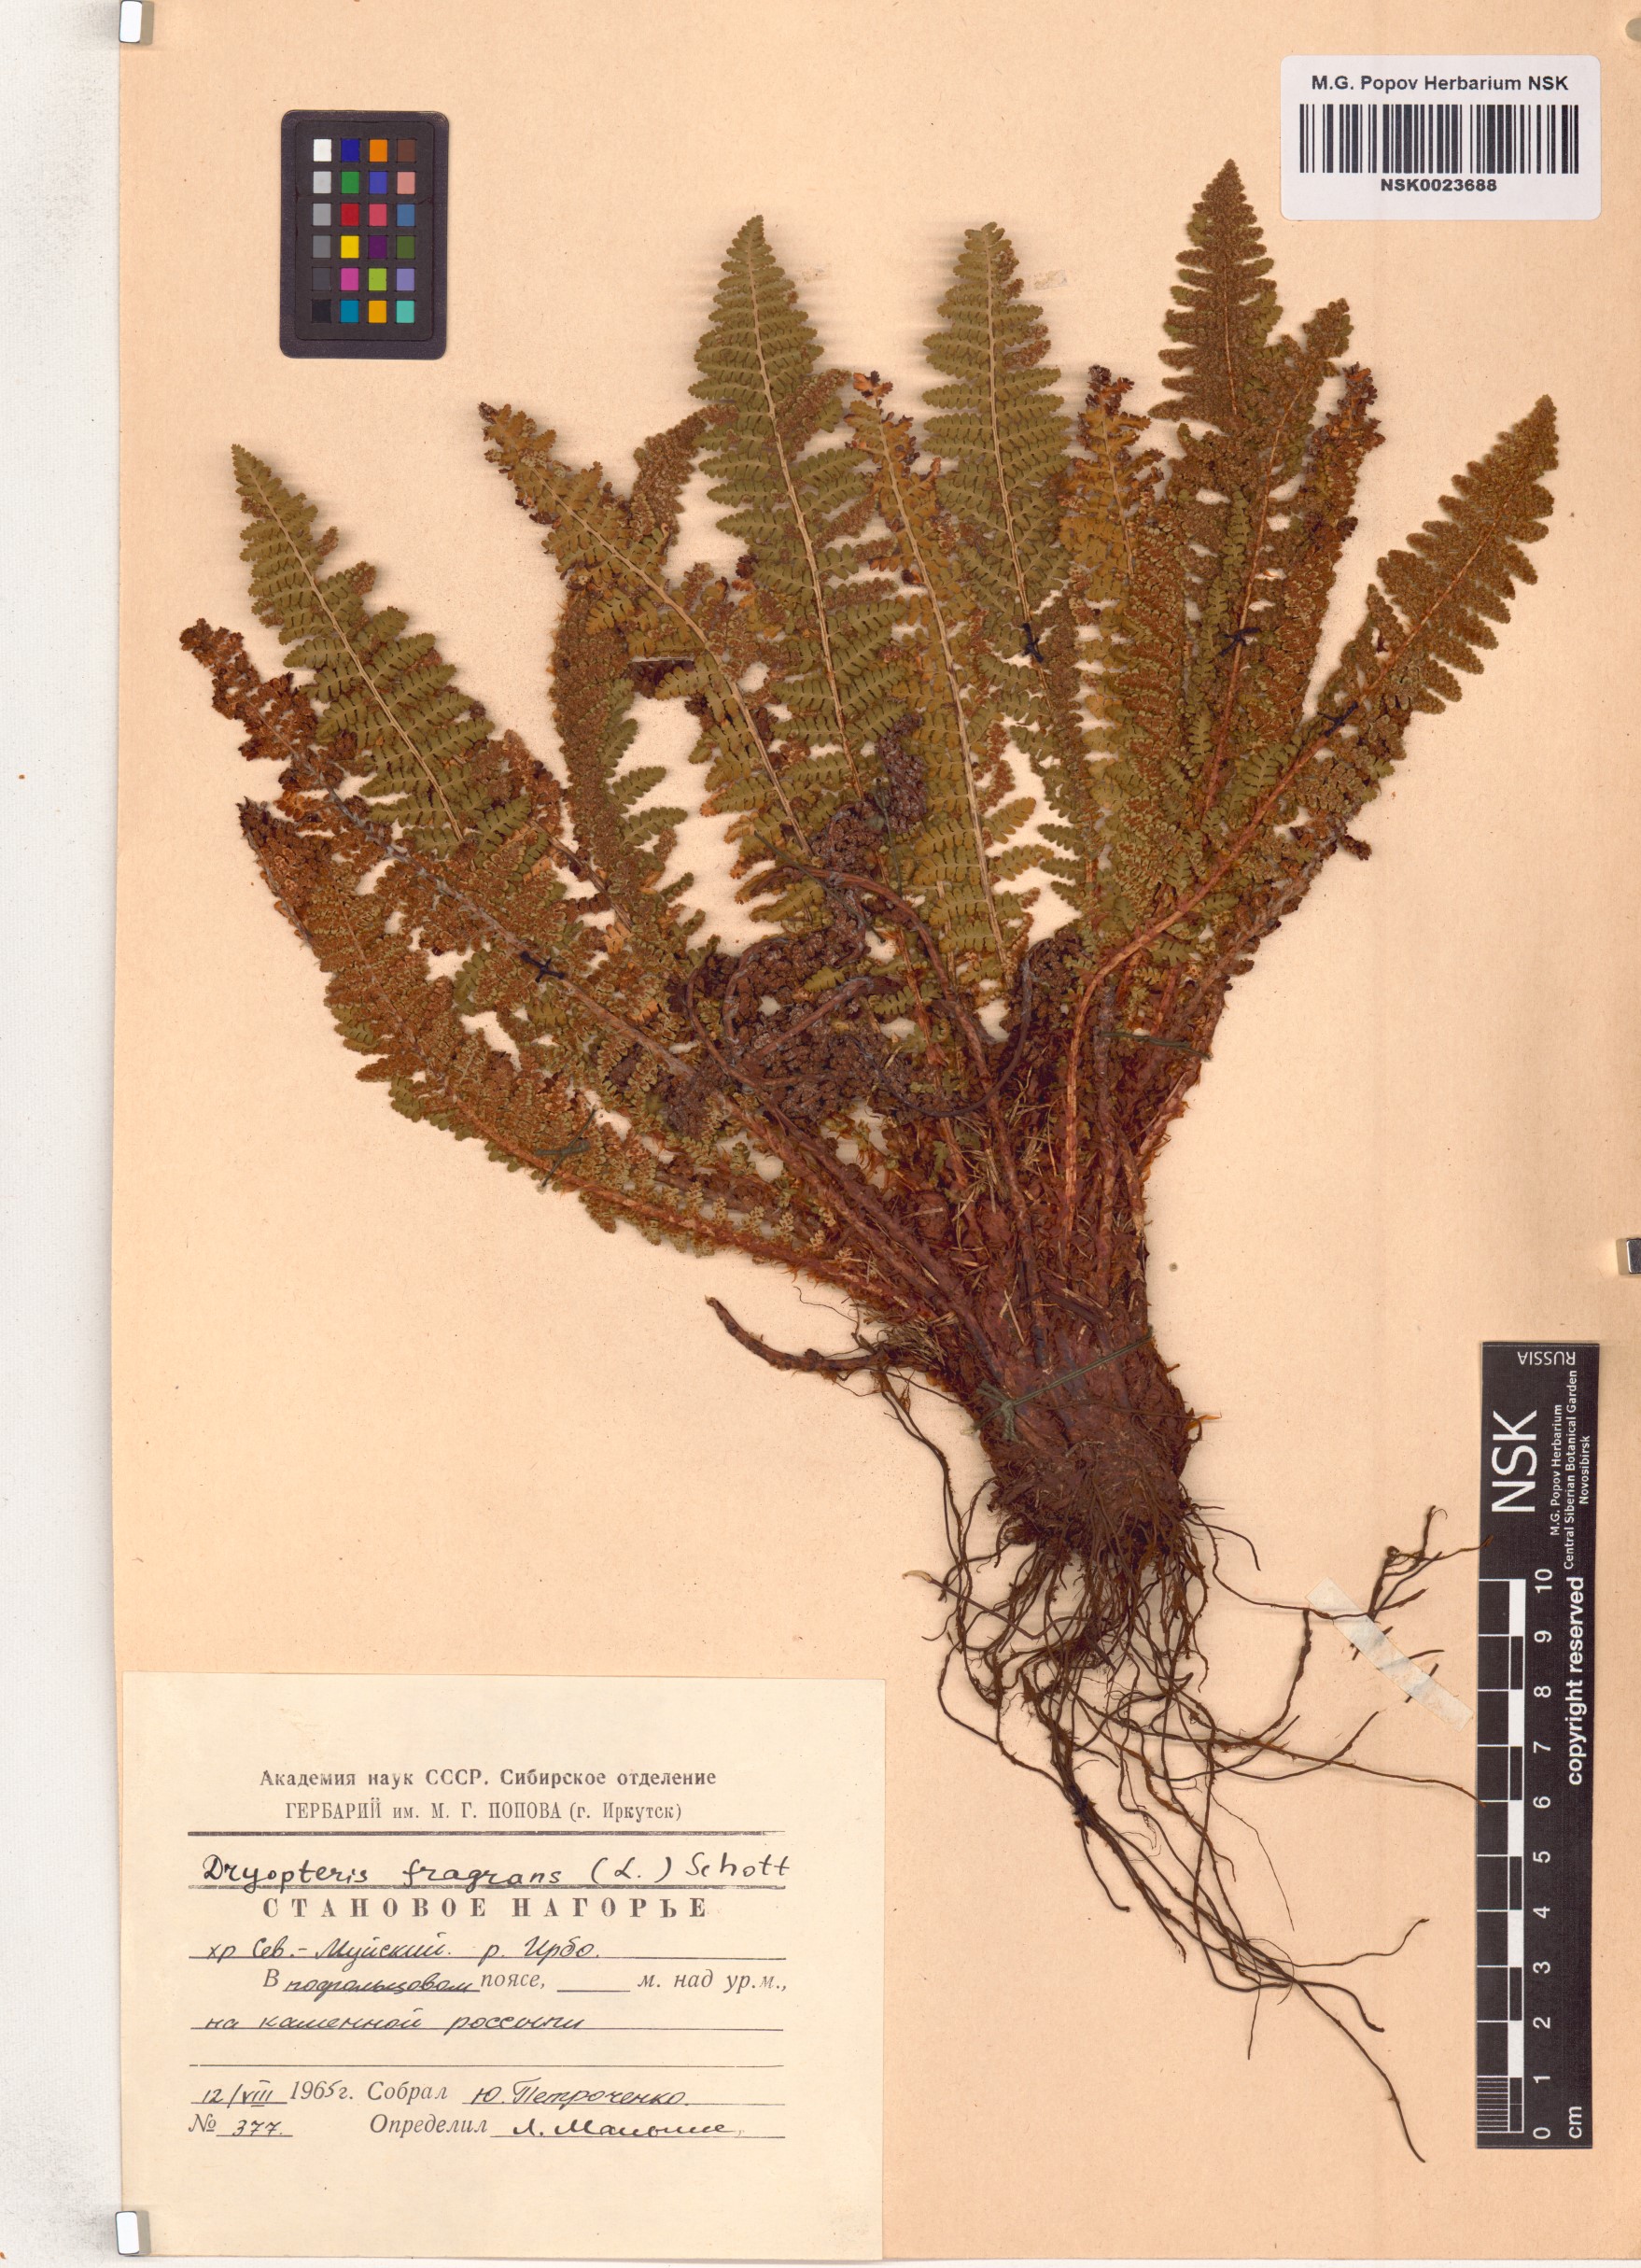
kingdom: Plantae
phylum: Tracheophyta
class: Polypodiopsida
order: Polypodiales
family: Dryopteridaceae
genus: Dryopteris
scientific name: Dryopteris fragrans
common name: Fragrant wood fern
